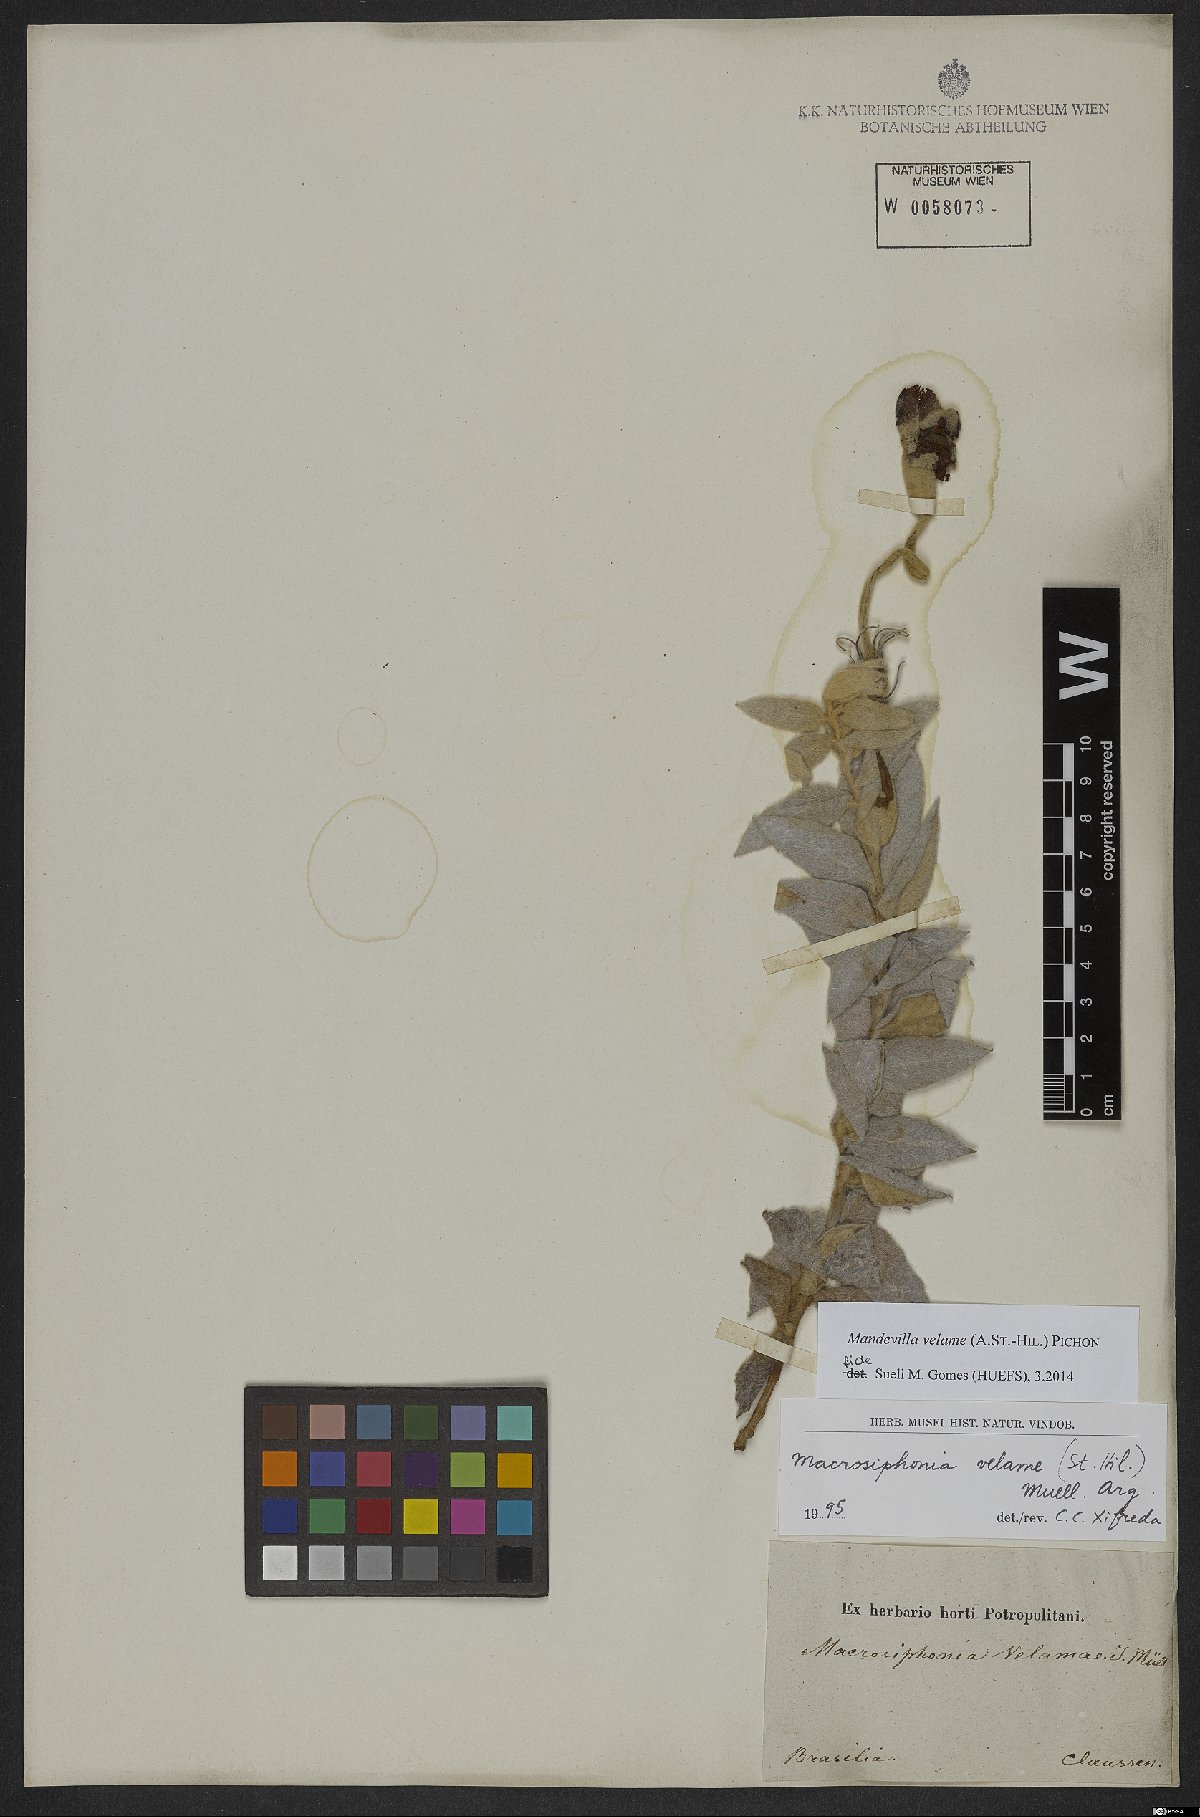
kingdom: Plantae
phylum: Tracheophyta
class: Magnoliopsida
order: Gentianales
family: Apocynaceae
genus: Mandevilla
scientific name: Mandevilla velame
